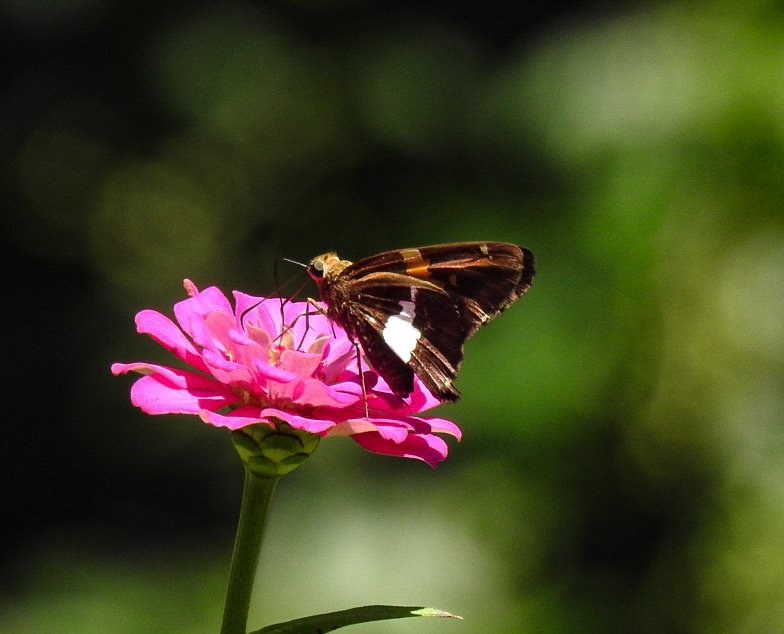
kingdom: Animalia
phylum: Arthropoda
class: Insecta
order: Lepidoptera
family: Hesperiidae
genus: Epargyreus
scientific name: Epargyreus clarus
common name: Silver-spotted Skipper
